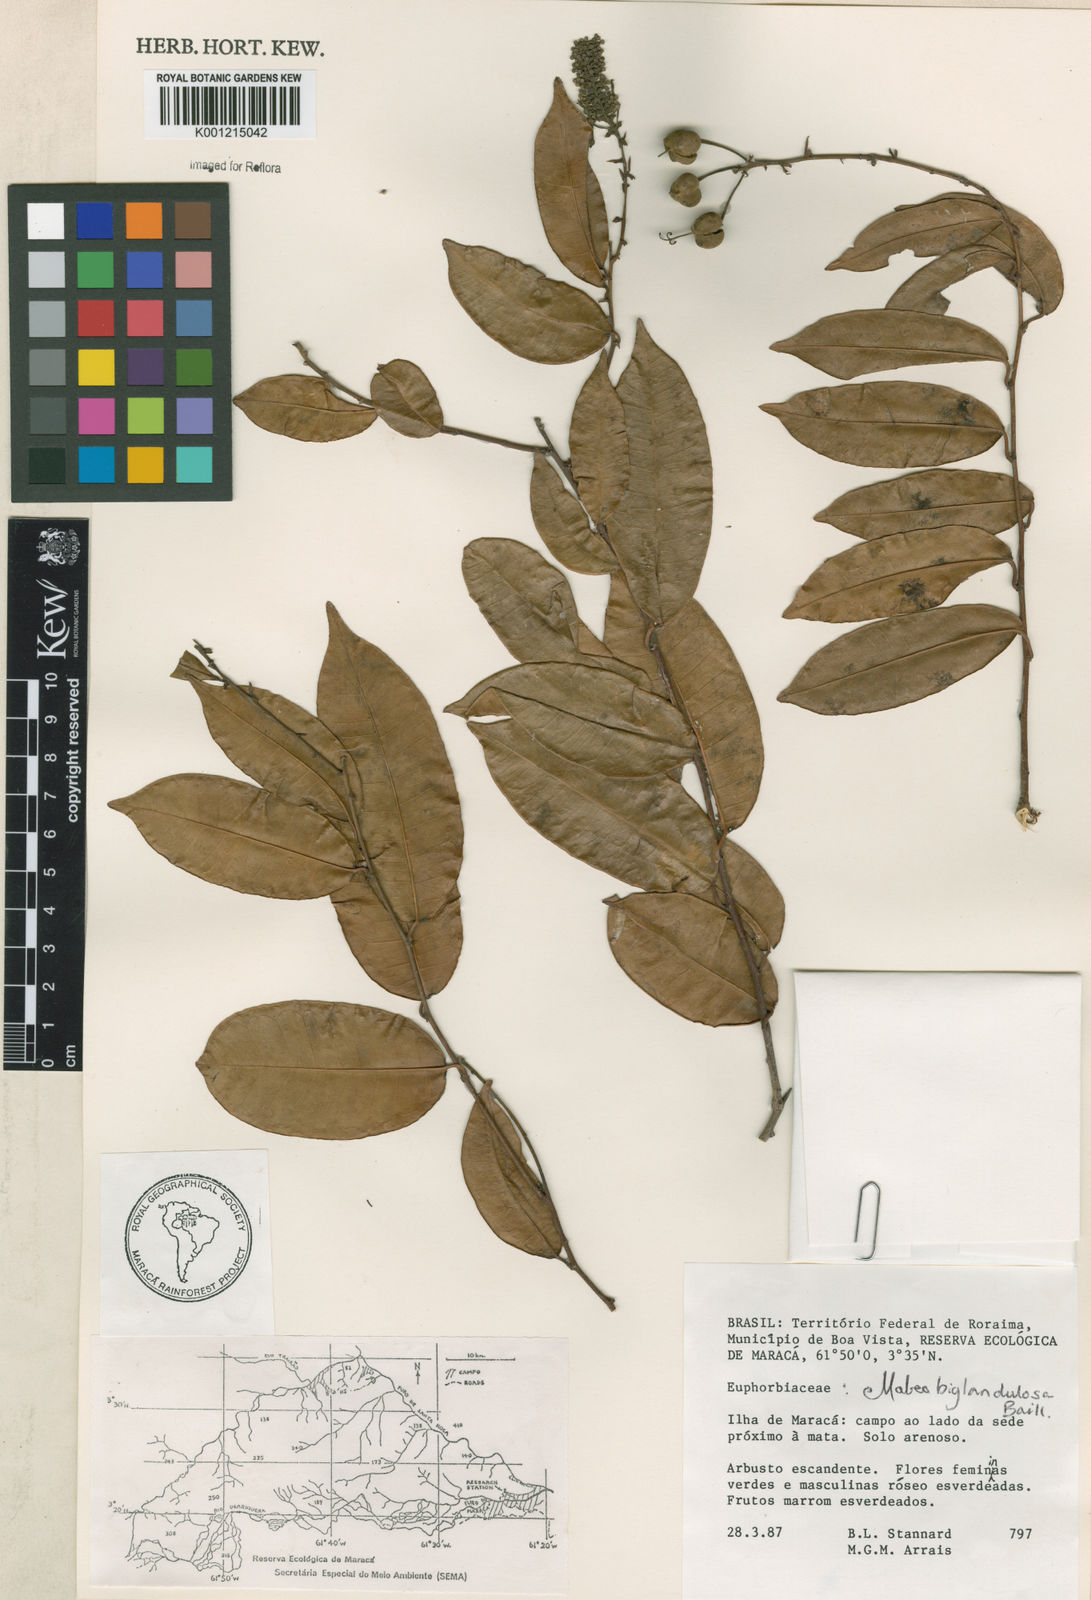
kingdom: Plantae
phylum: Tracheophyta
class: Magnoliopsida
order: Malpighiales
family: Euphorbiaceae
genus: Mabea
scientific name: Mabea
